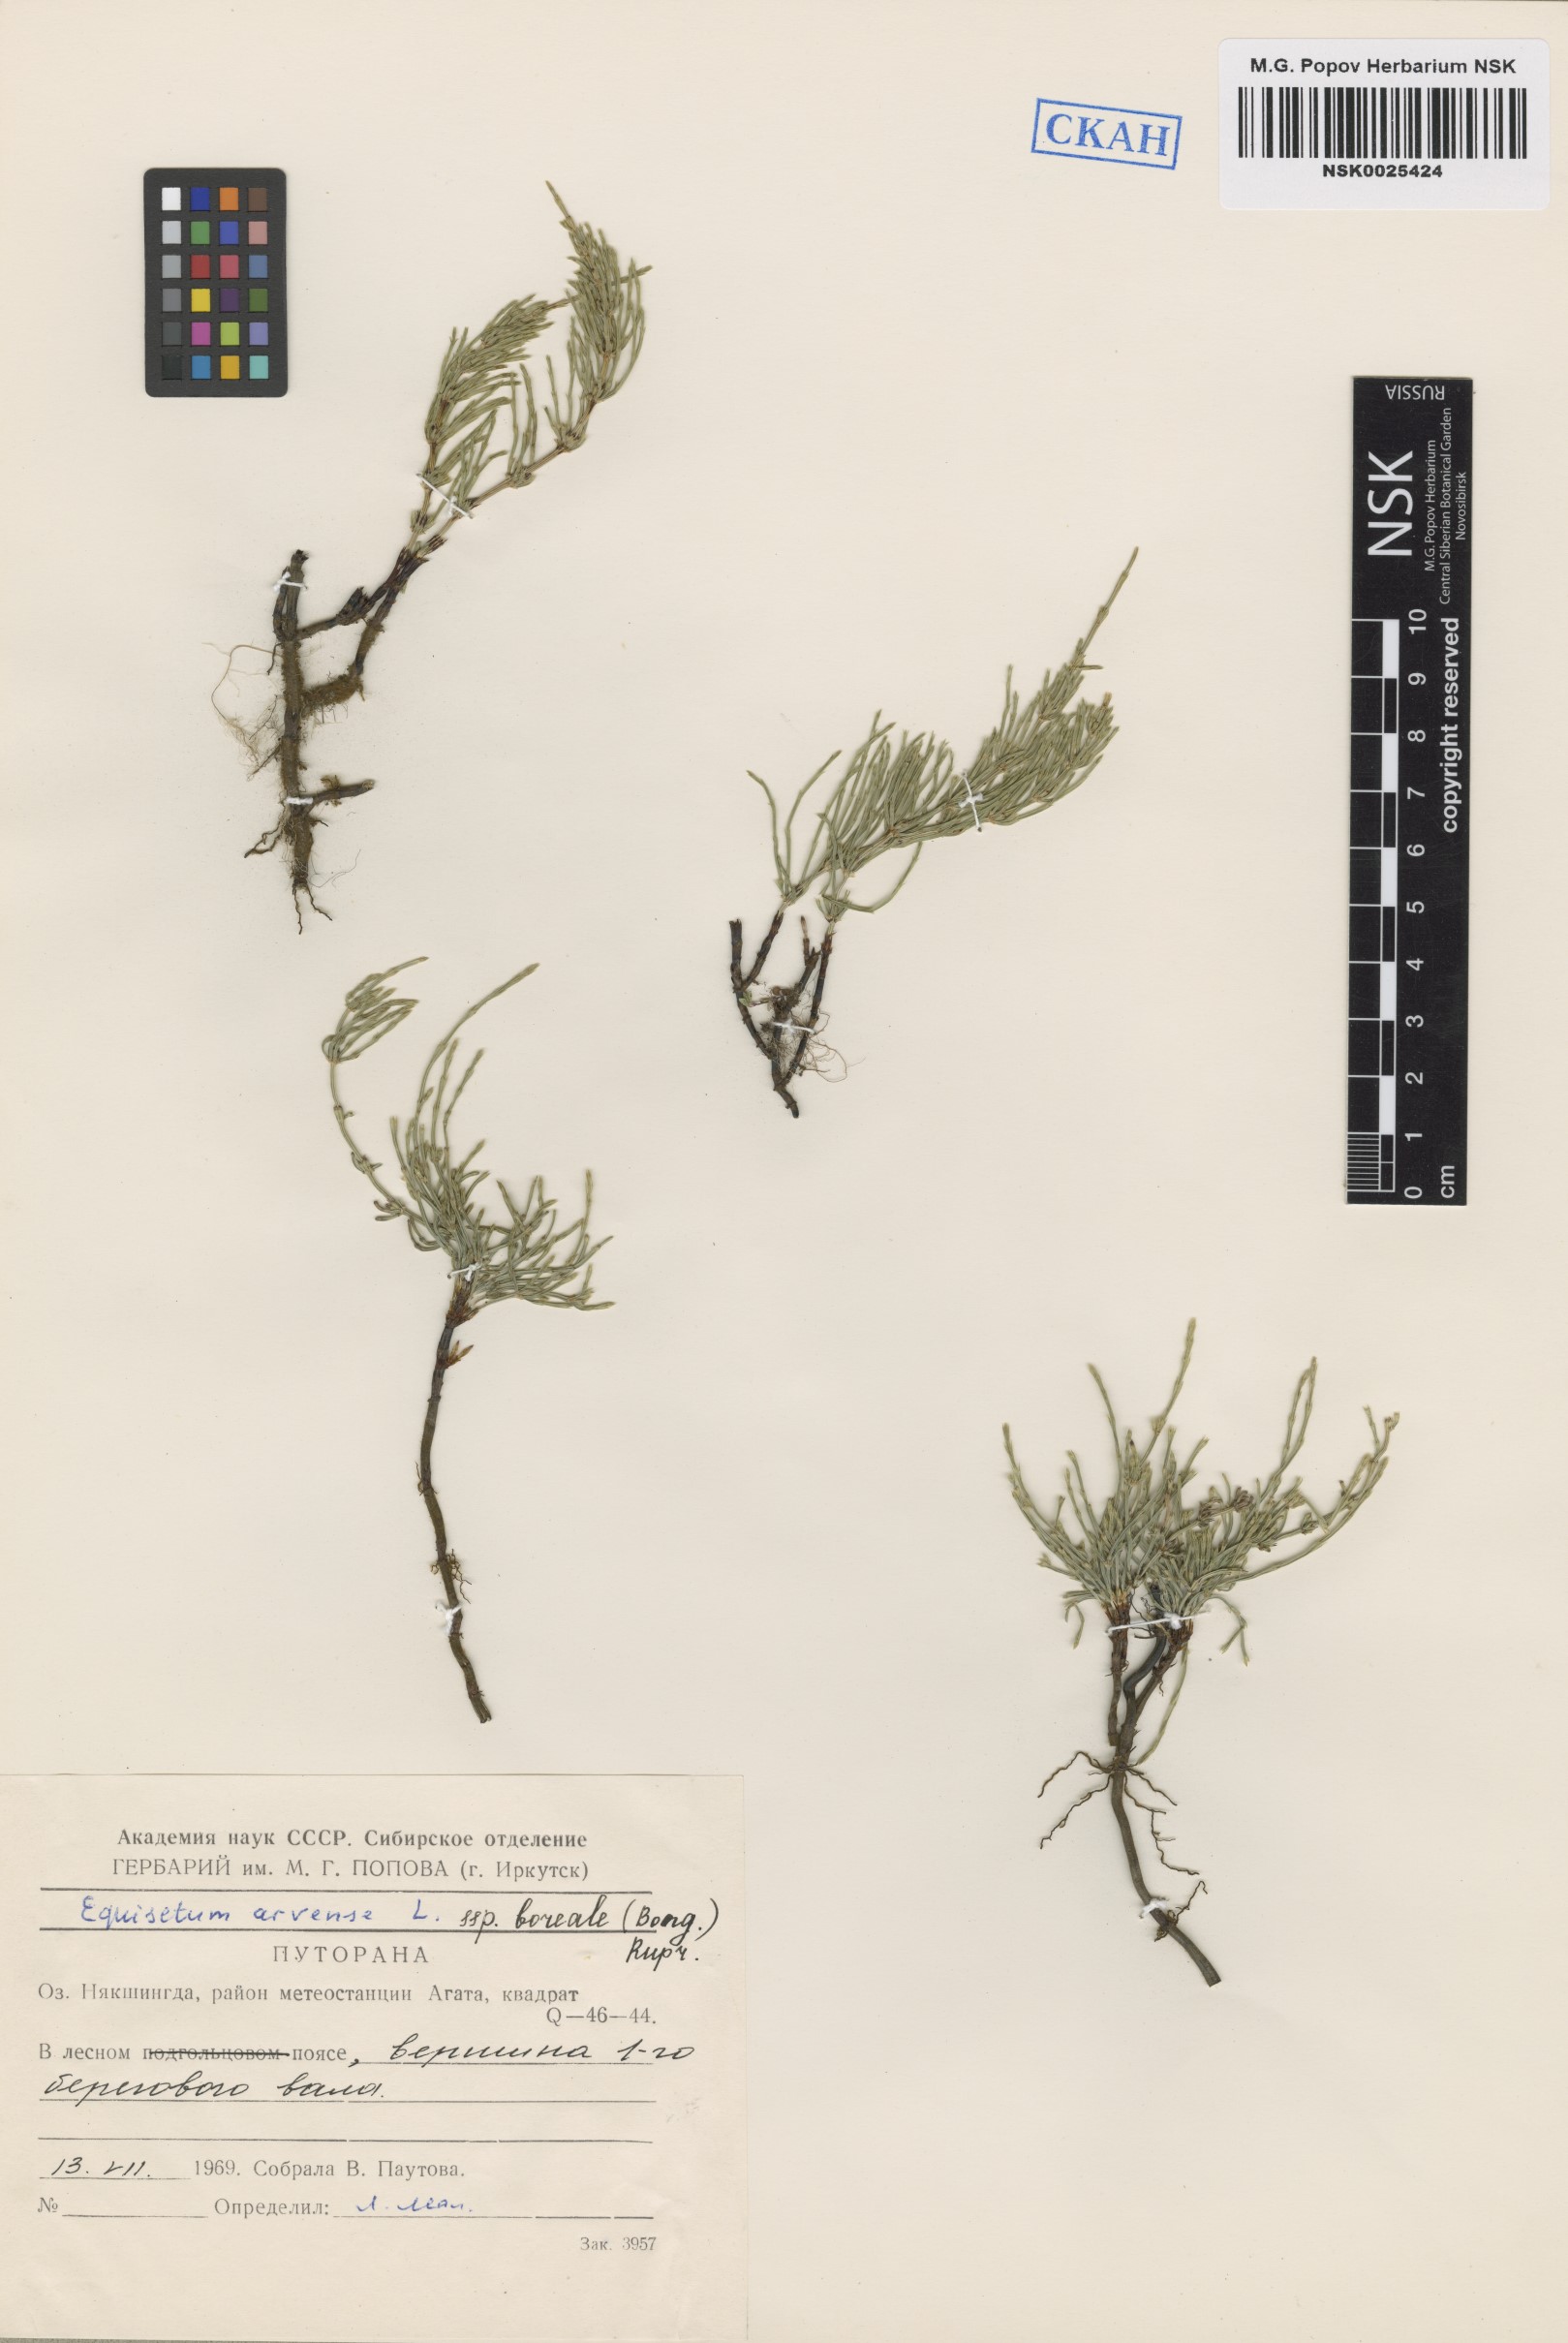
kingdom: Plantae
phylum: Tracheophyta
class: Polypodiopsida
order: Equisetales
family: Equisetaceae
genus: Equisetum
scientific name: Equisetum arvense
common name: Field horsetail
